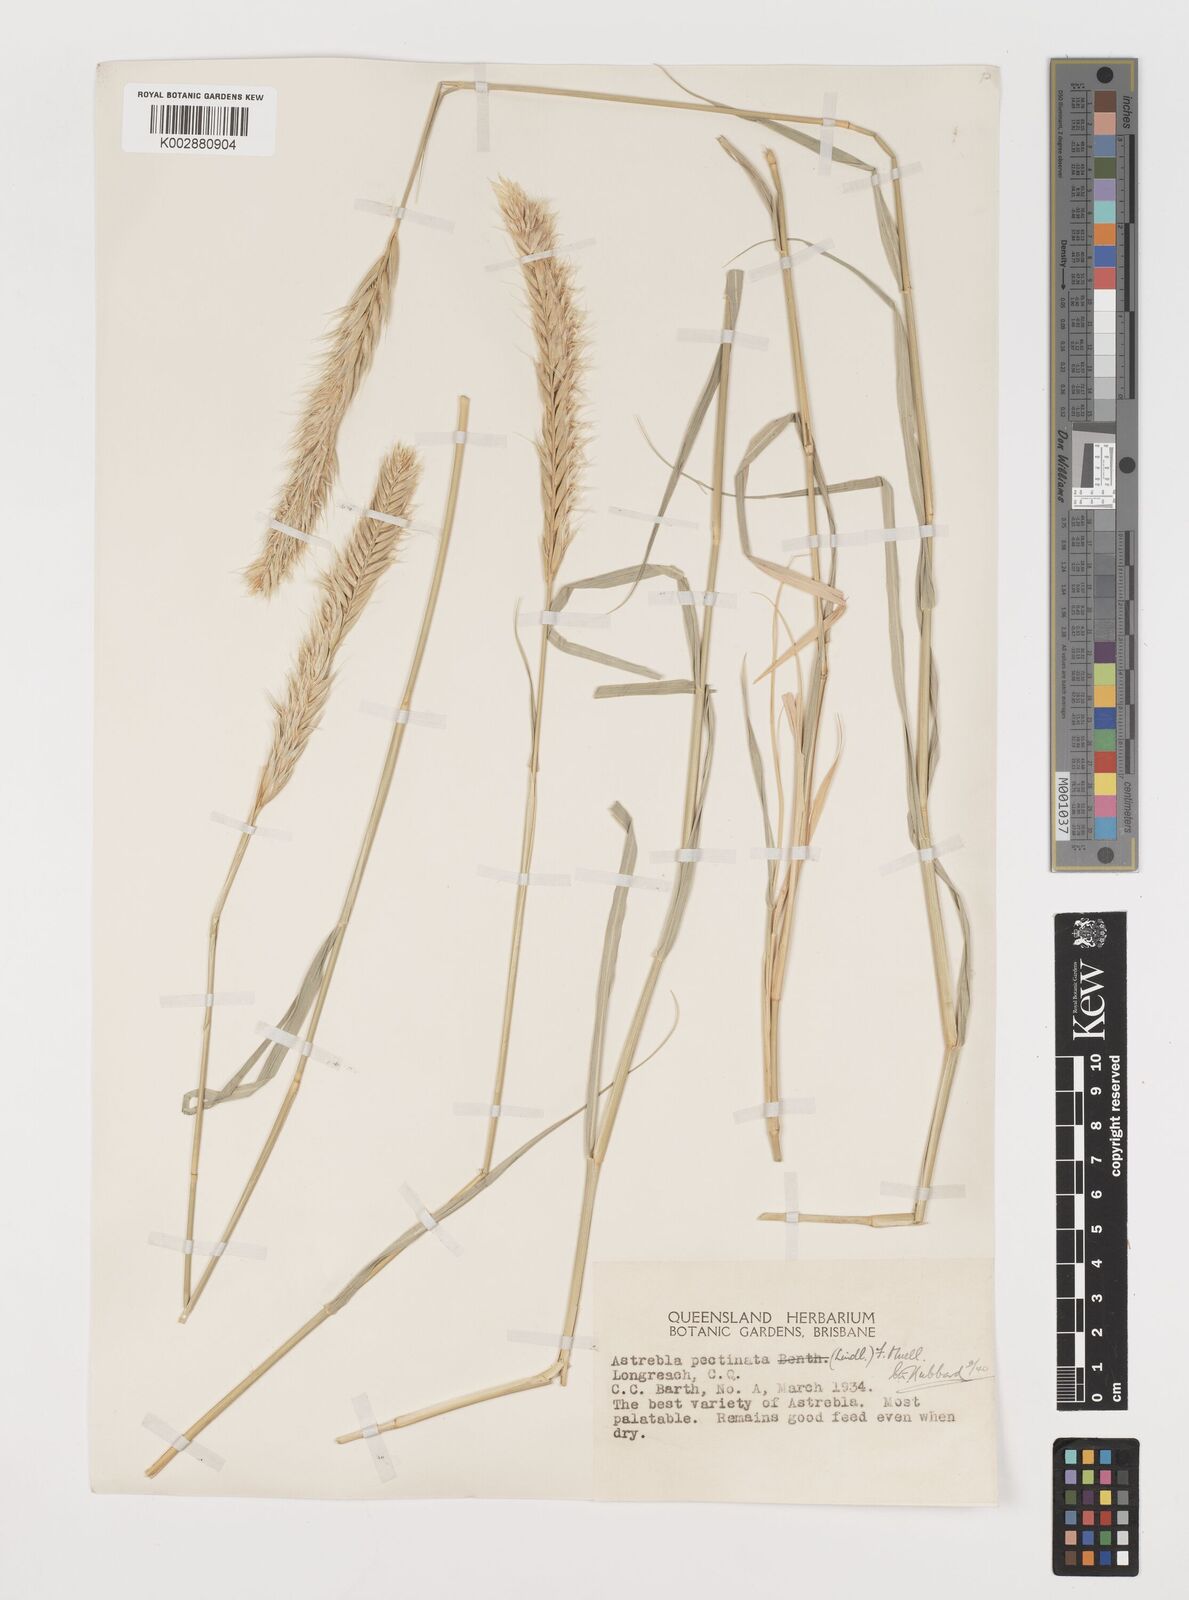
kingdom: Plantae
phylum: Tracheophyta
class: Liliopsida
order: Poales
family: Poaceae
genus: Astrebla
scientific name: Astrebla pectinata
